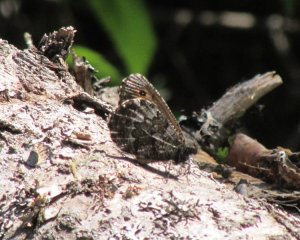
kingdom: Animalia
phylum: Arthropoda
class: Insecta
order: Lepidoptera
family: Nymphalidae
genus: Oeneis
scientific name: Oeneis jutta
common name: Jutta Arctic
